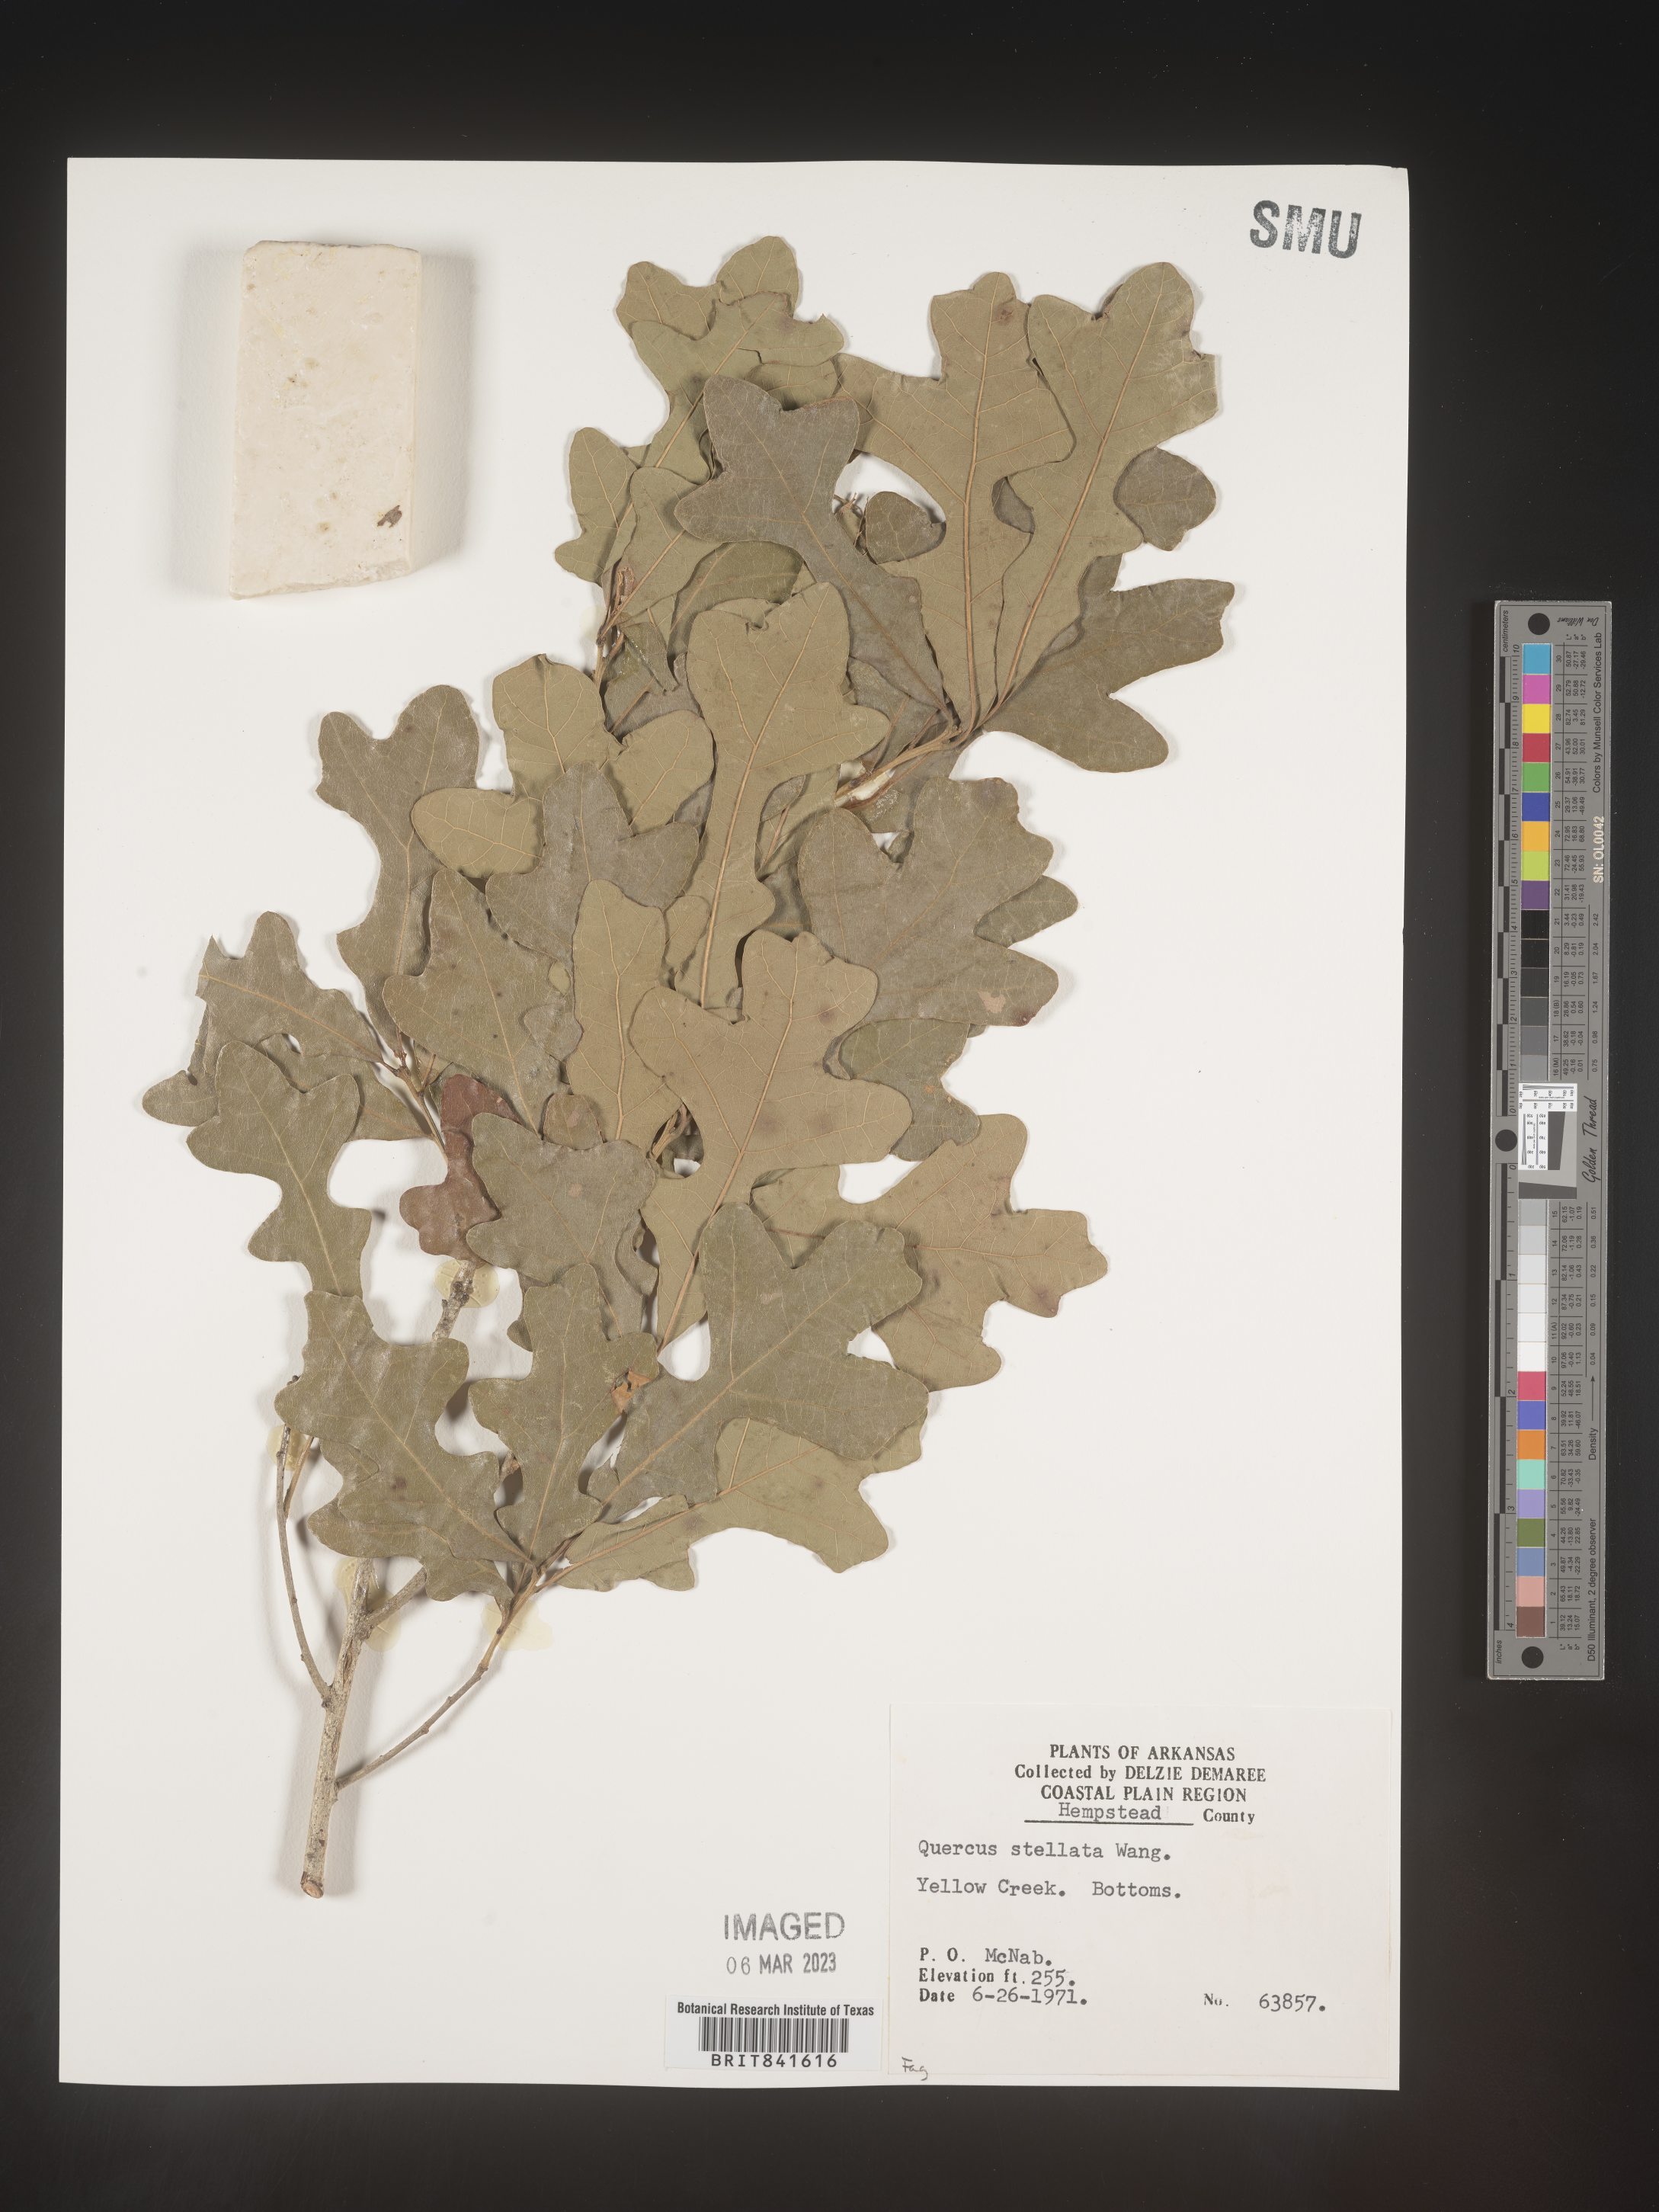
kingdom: Plantae
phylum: Tracheophyta
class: Magnoliopsida
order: Fagales
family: Fagaceae
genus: Quercus
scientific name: Quercus stellata
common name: Post oak
